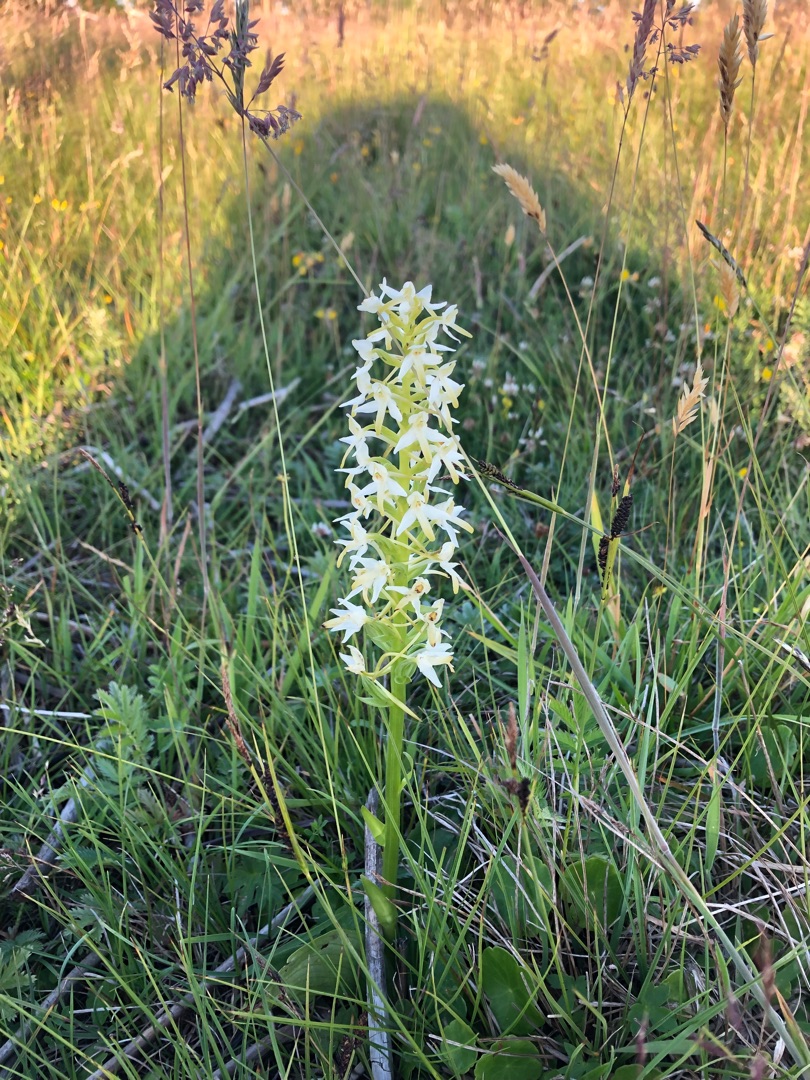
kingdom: Plantae
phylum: Tracheophyta
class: Liliopsida
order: Asparagales
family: Orchidaceae
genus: Platanthera
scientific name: Platanthera bifolia
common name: Bakke-gøgelilje
